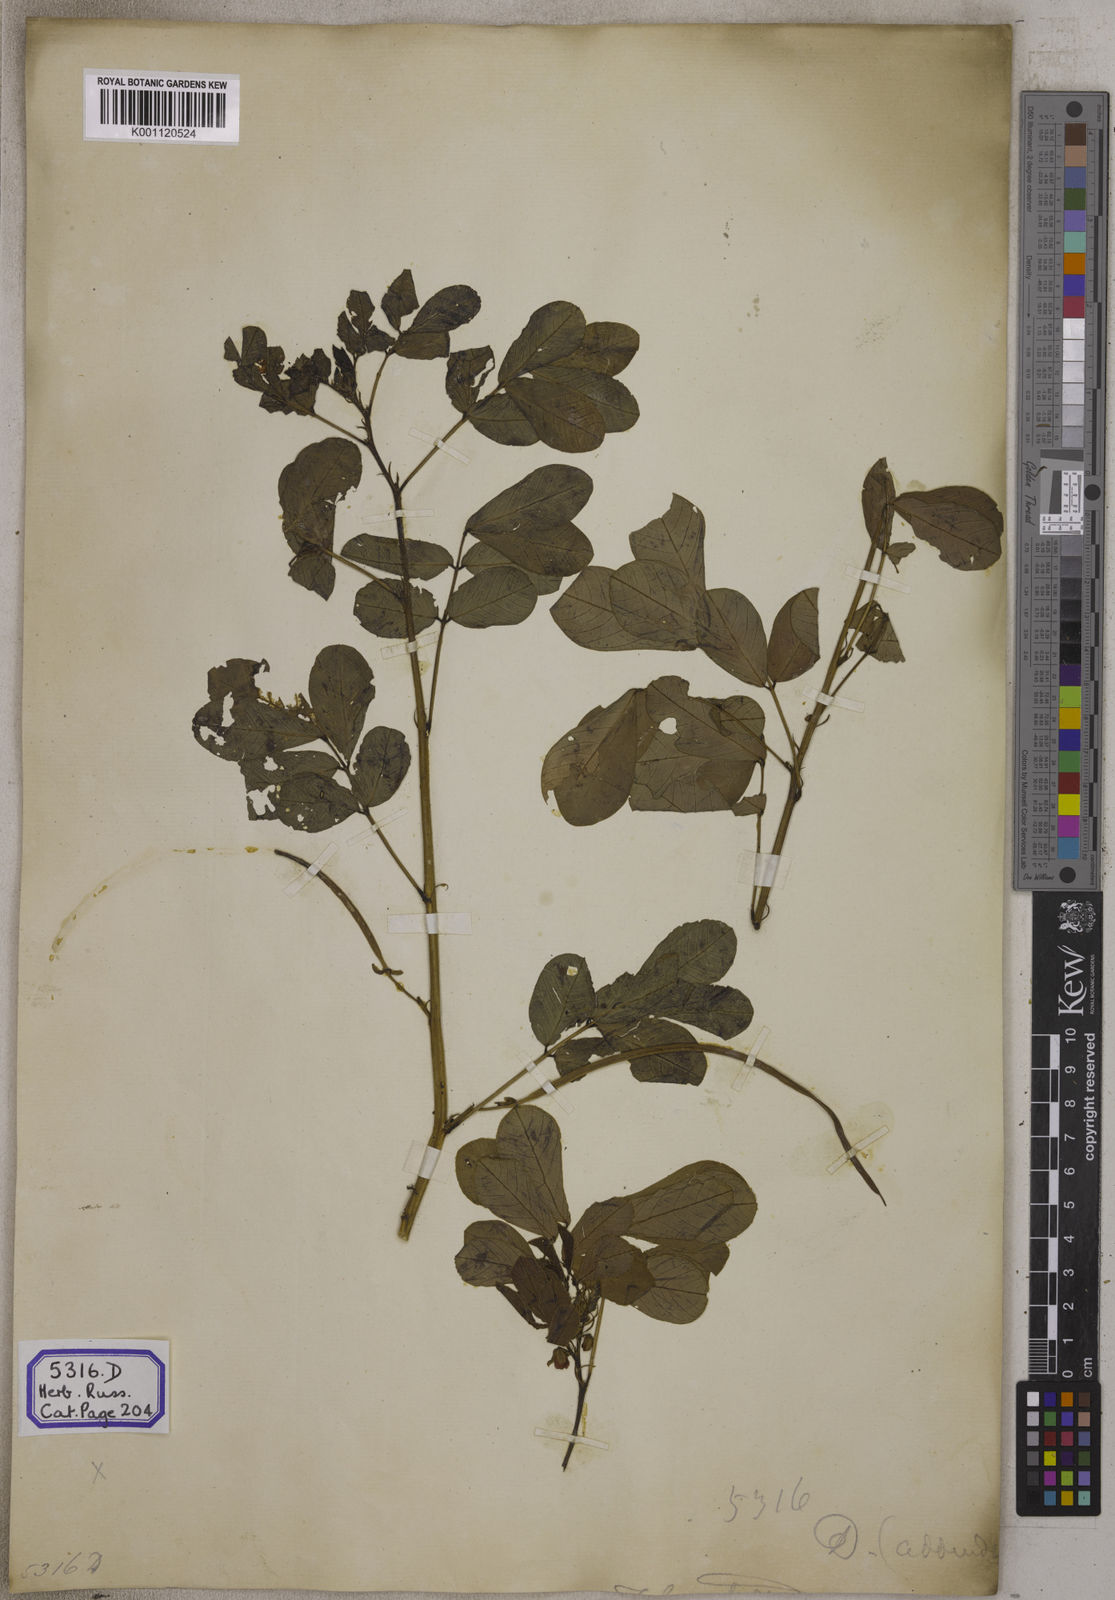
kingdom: Plantae
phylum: Tracheophyta
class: Magnoliopsida
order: Fabales
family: Fabaceae
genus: Senna
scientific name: Senna tora
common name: Sickle senna
